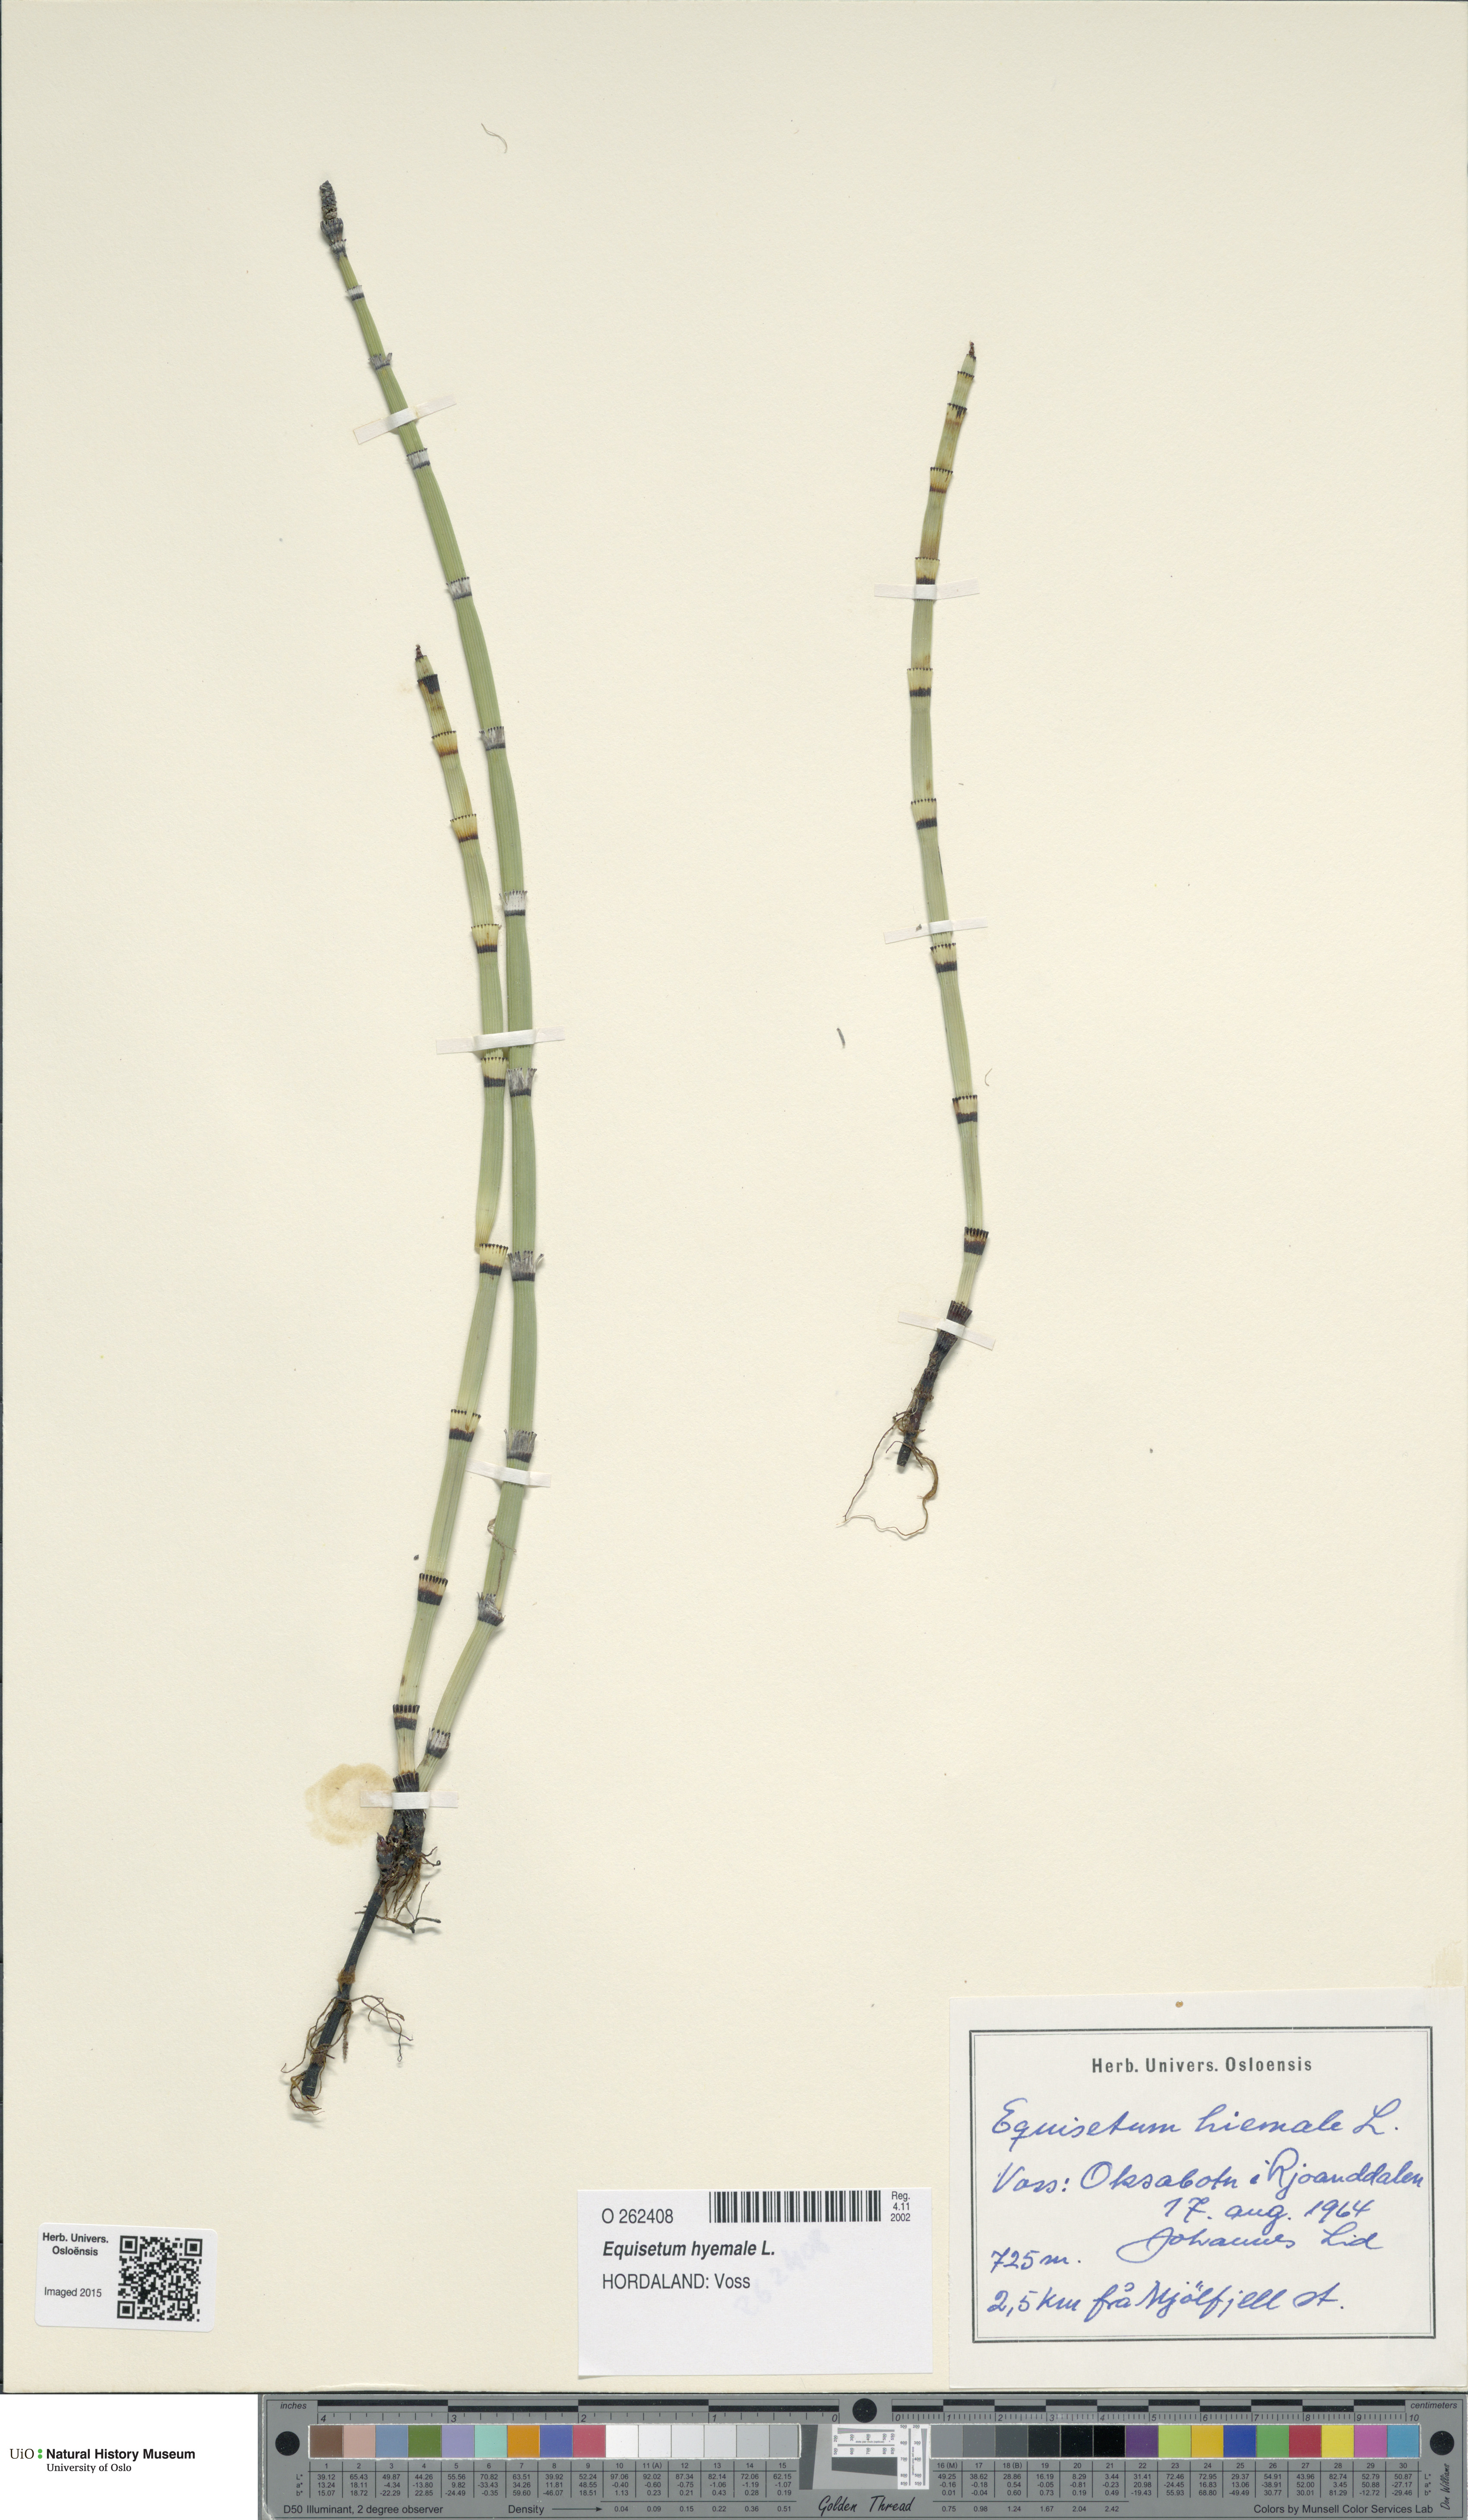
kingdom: Plantae
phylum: Tracheophyta
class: Polypodiopsida
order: Equisetales
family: Equisetaceae
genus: Equisetum
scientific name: Equisetum hyemale
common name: Rough horsetail
